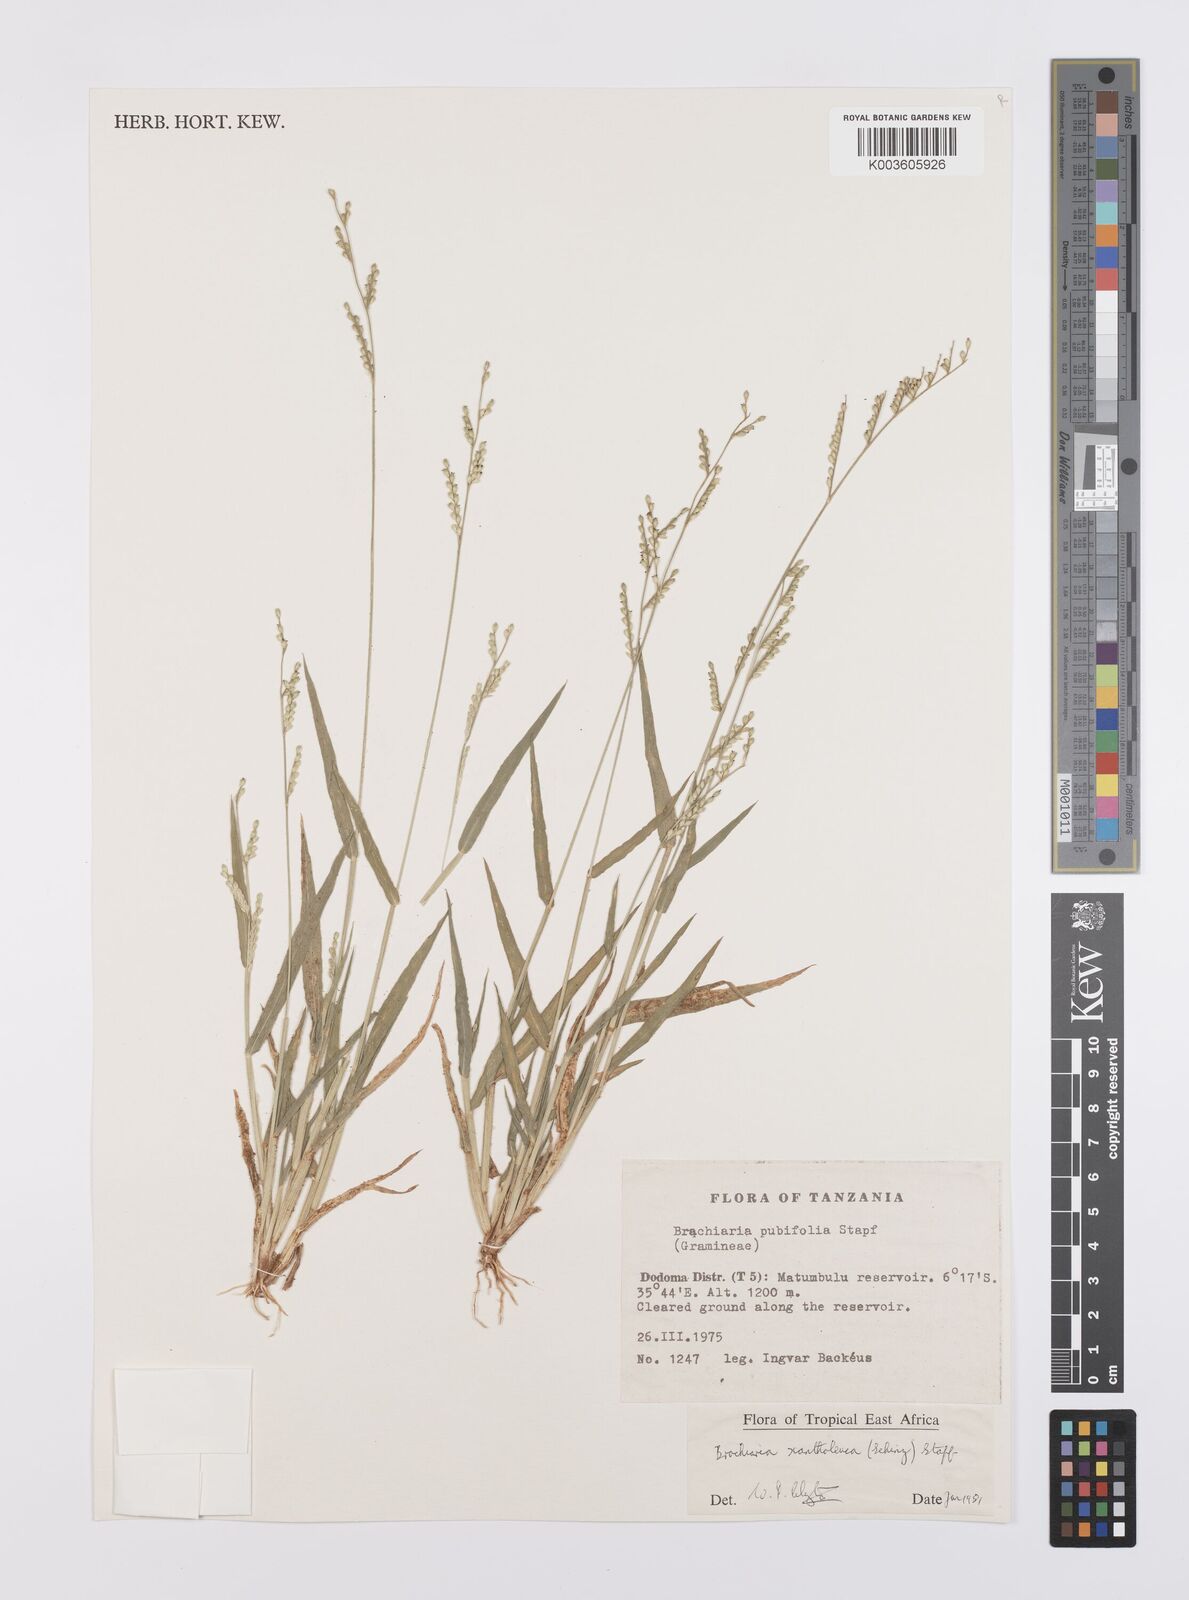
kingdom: Plantae
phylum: Tracheophyta
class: Liliopsida
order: Poales
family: Poaceae
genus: Urochloa
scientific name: Urochloa xantholeuca
